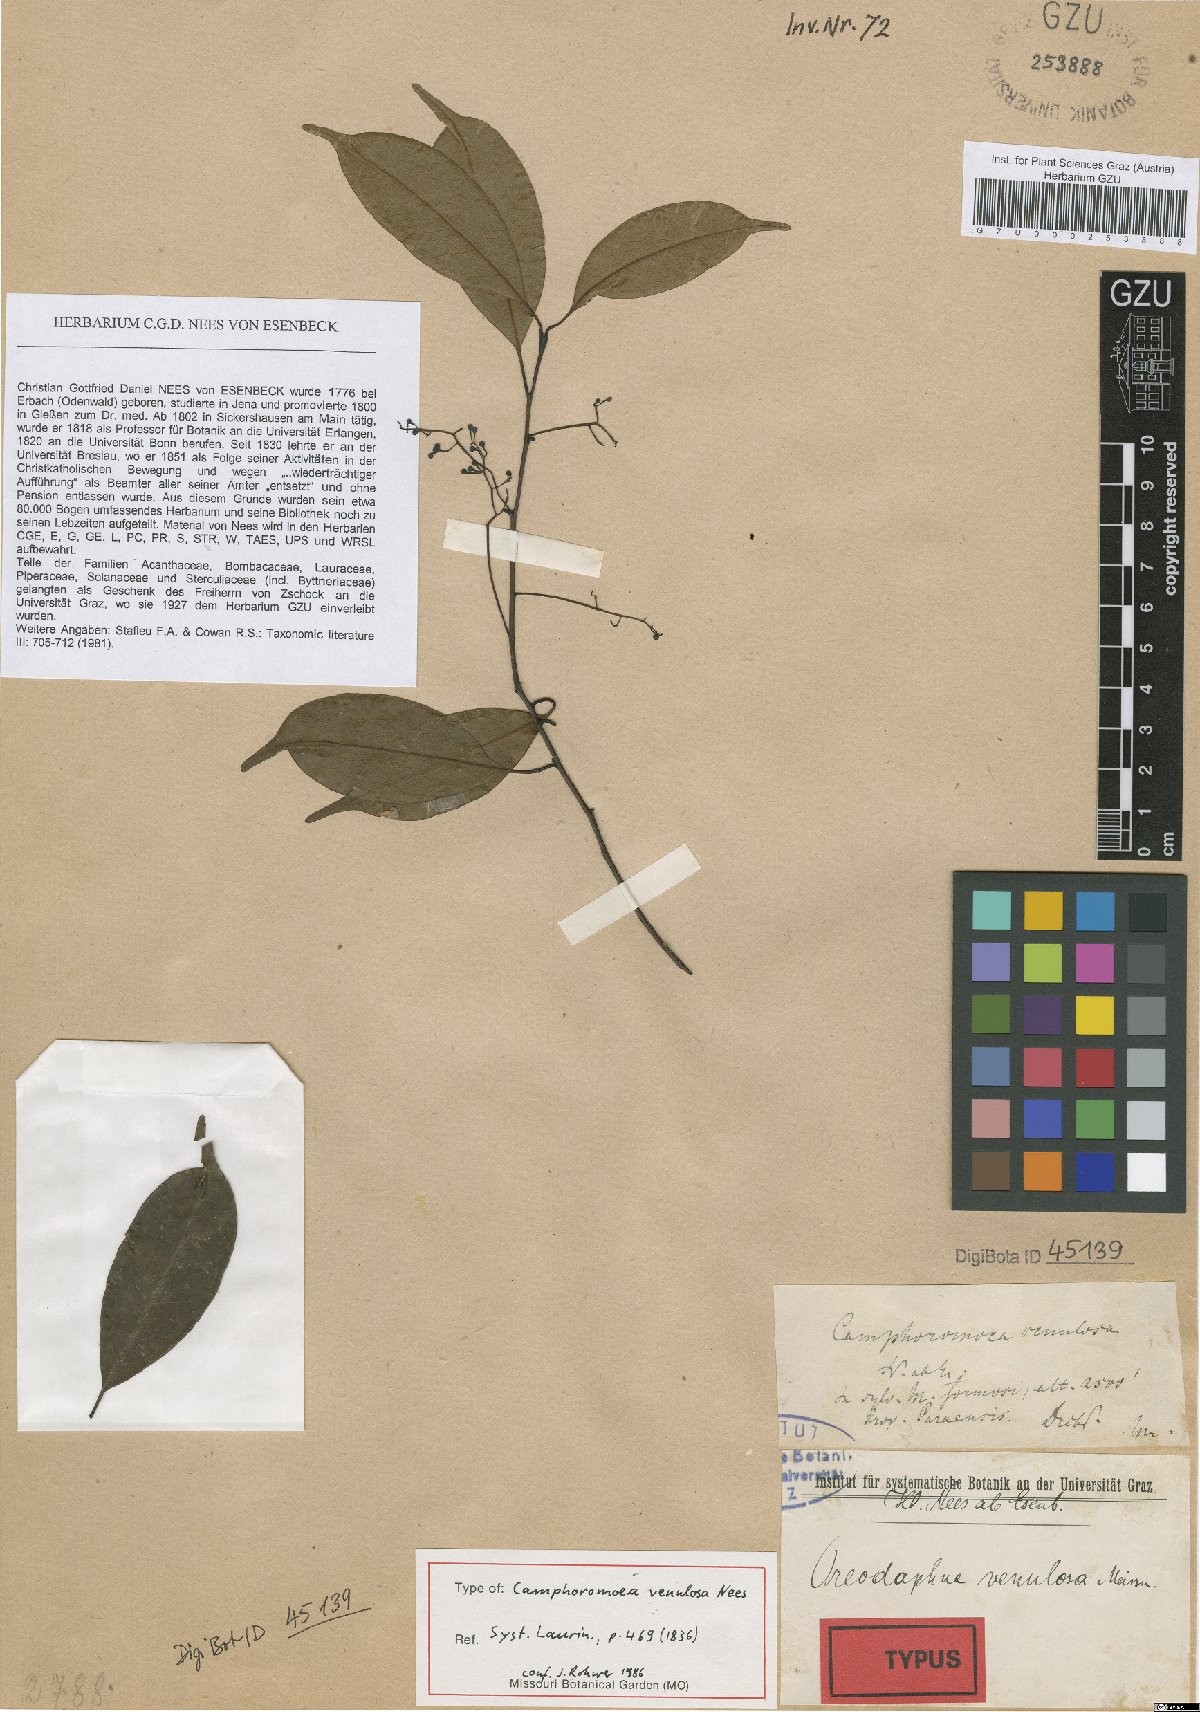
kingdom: Plantae
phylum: Tracheophyta
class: Magnoliopsida
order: Laurales
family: Lauraceae
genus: Ocotea
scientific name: Ocotea laxa
